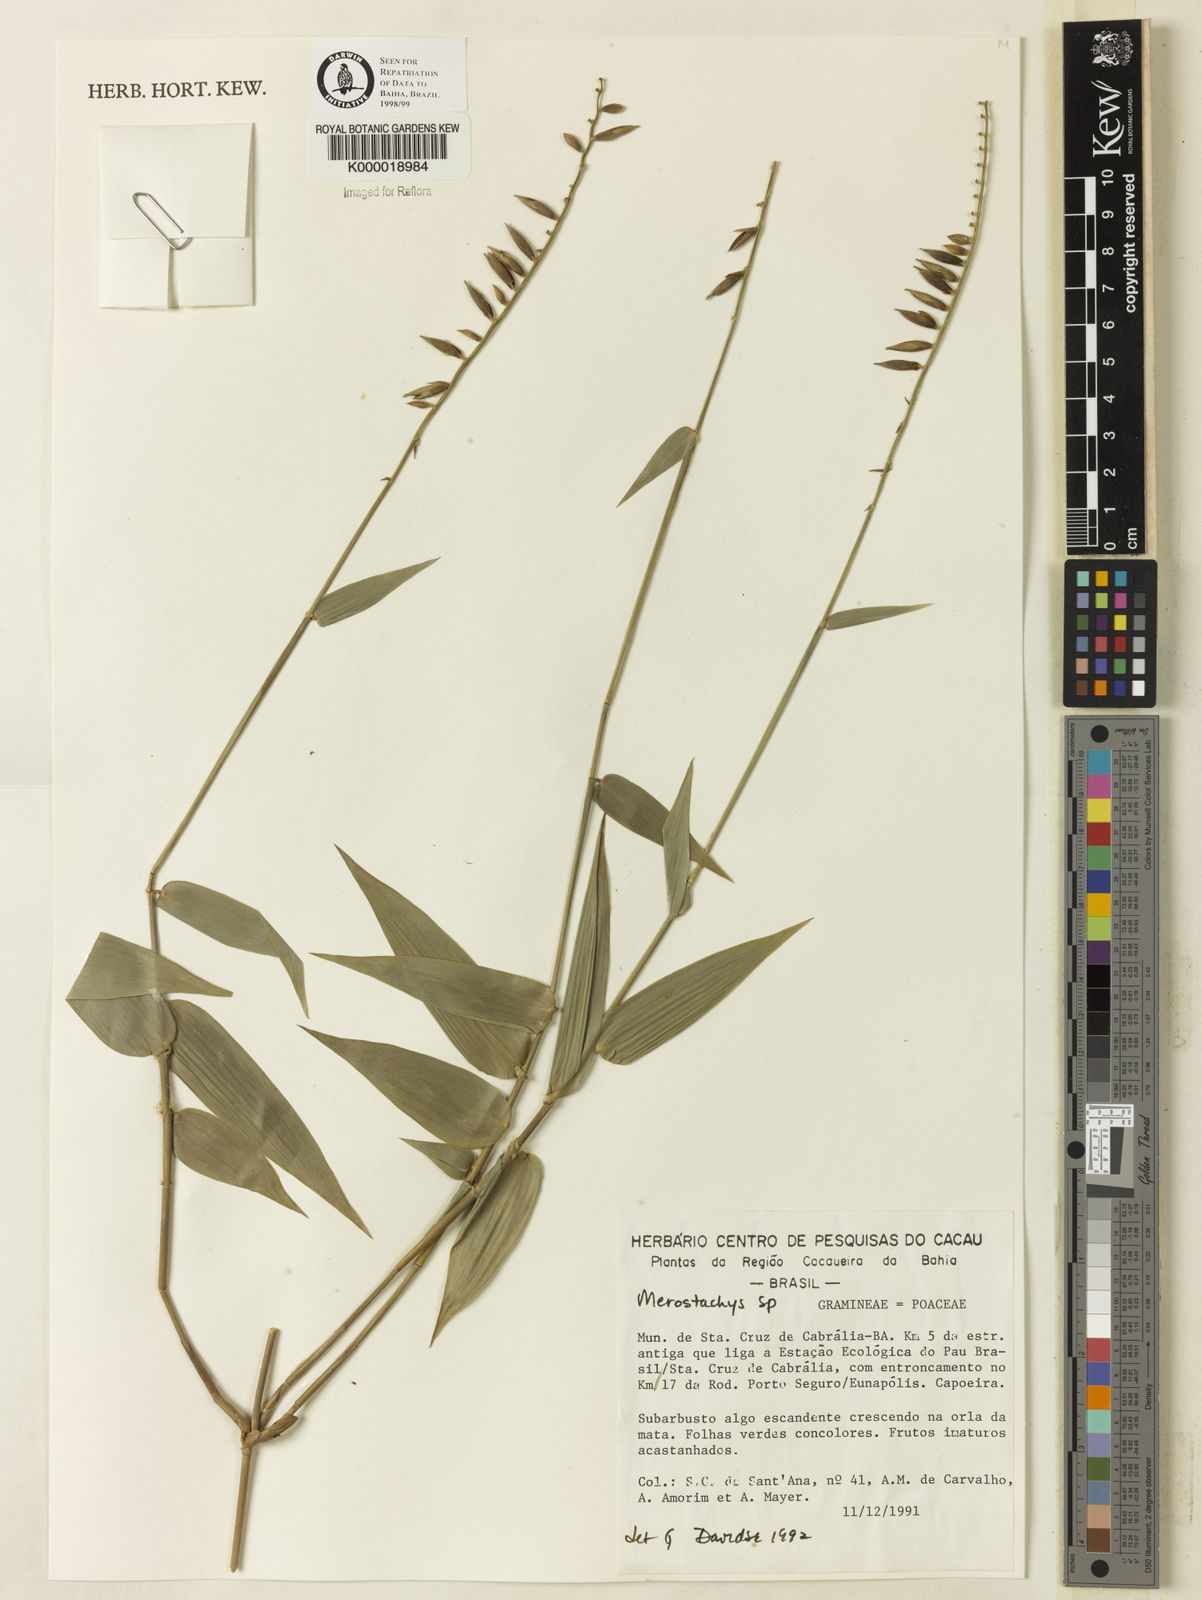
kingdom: Plantae
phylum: Tracheophyta
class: Liliopsida
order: Poales
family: Poaceae
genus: Merostachys
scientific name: Merostachys
